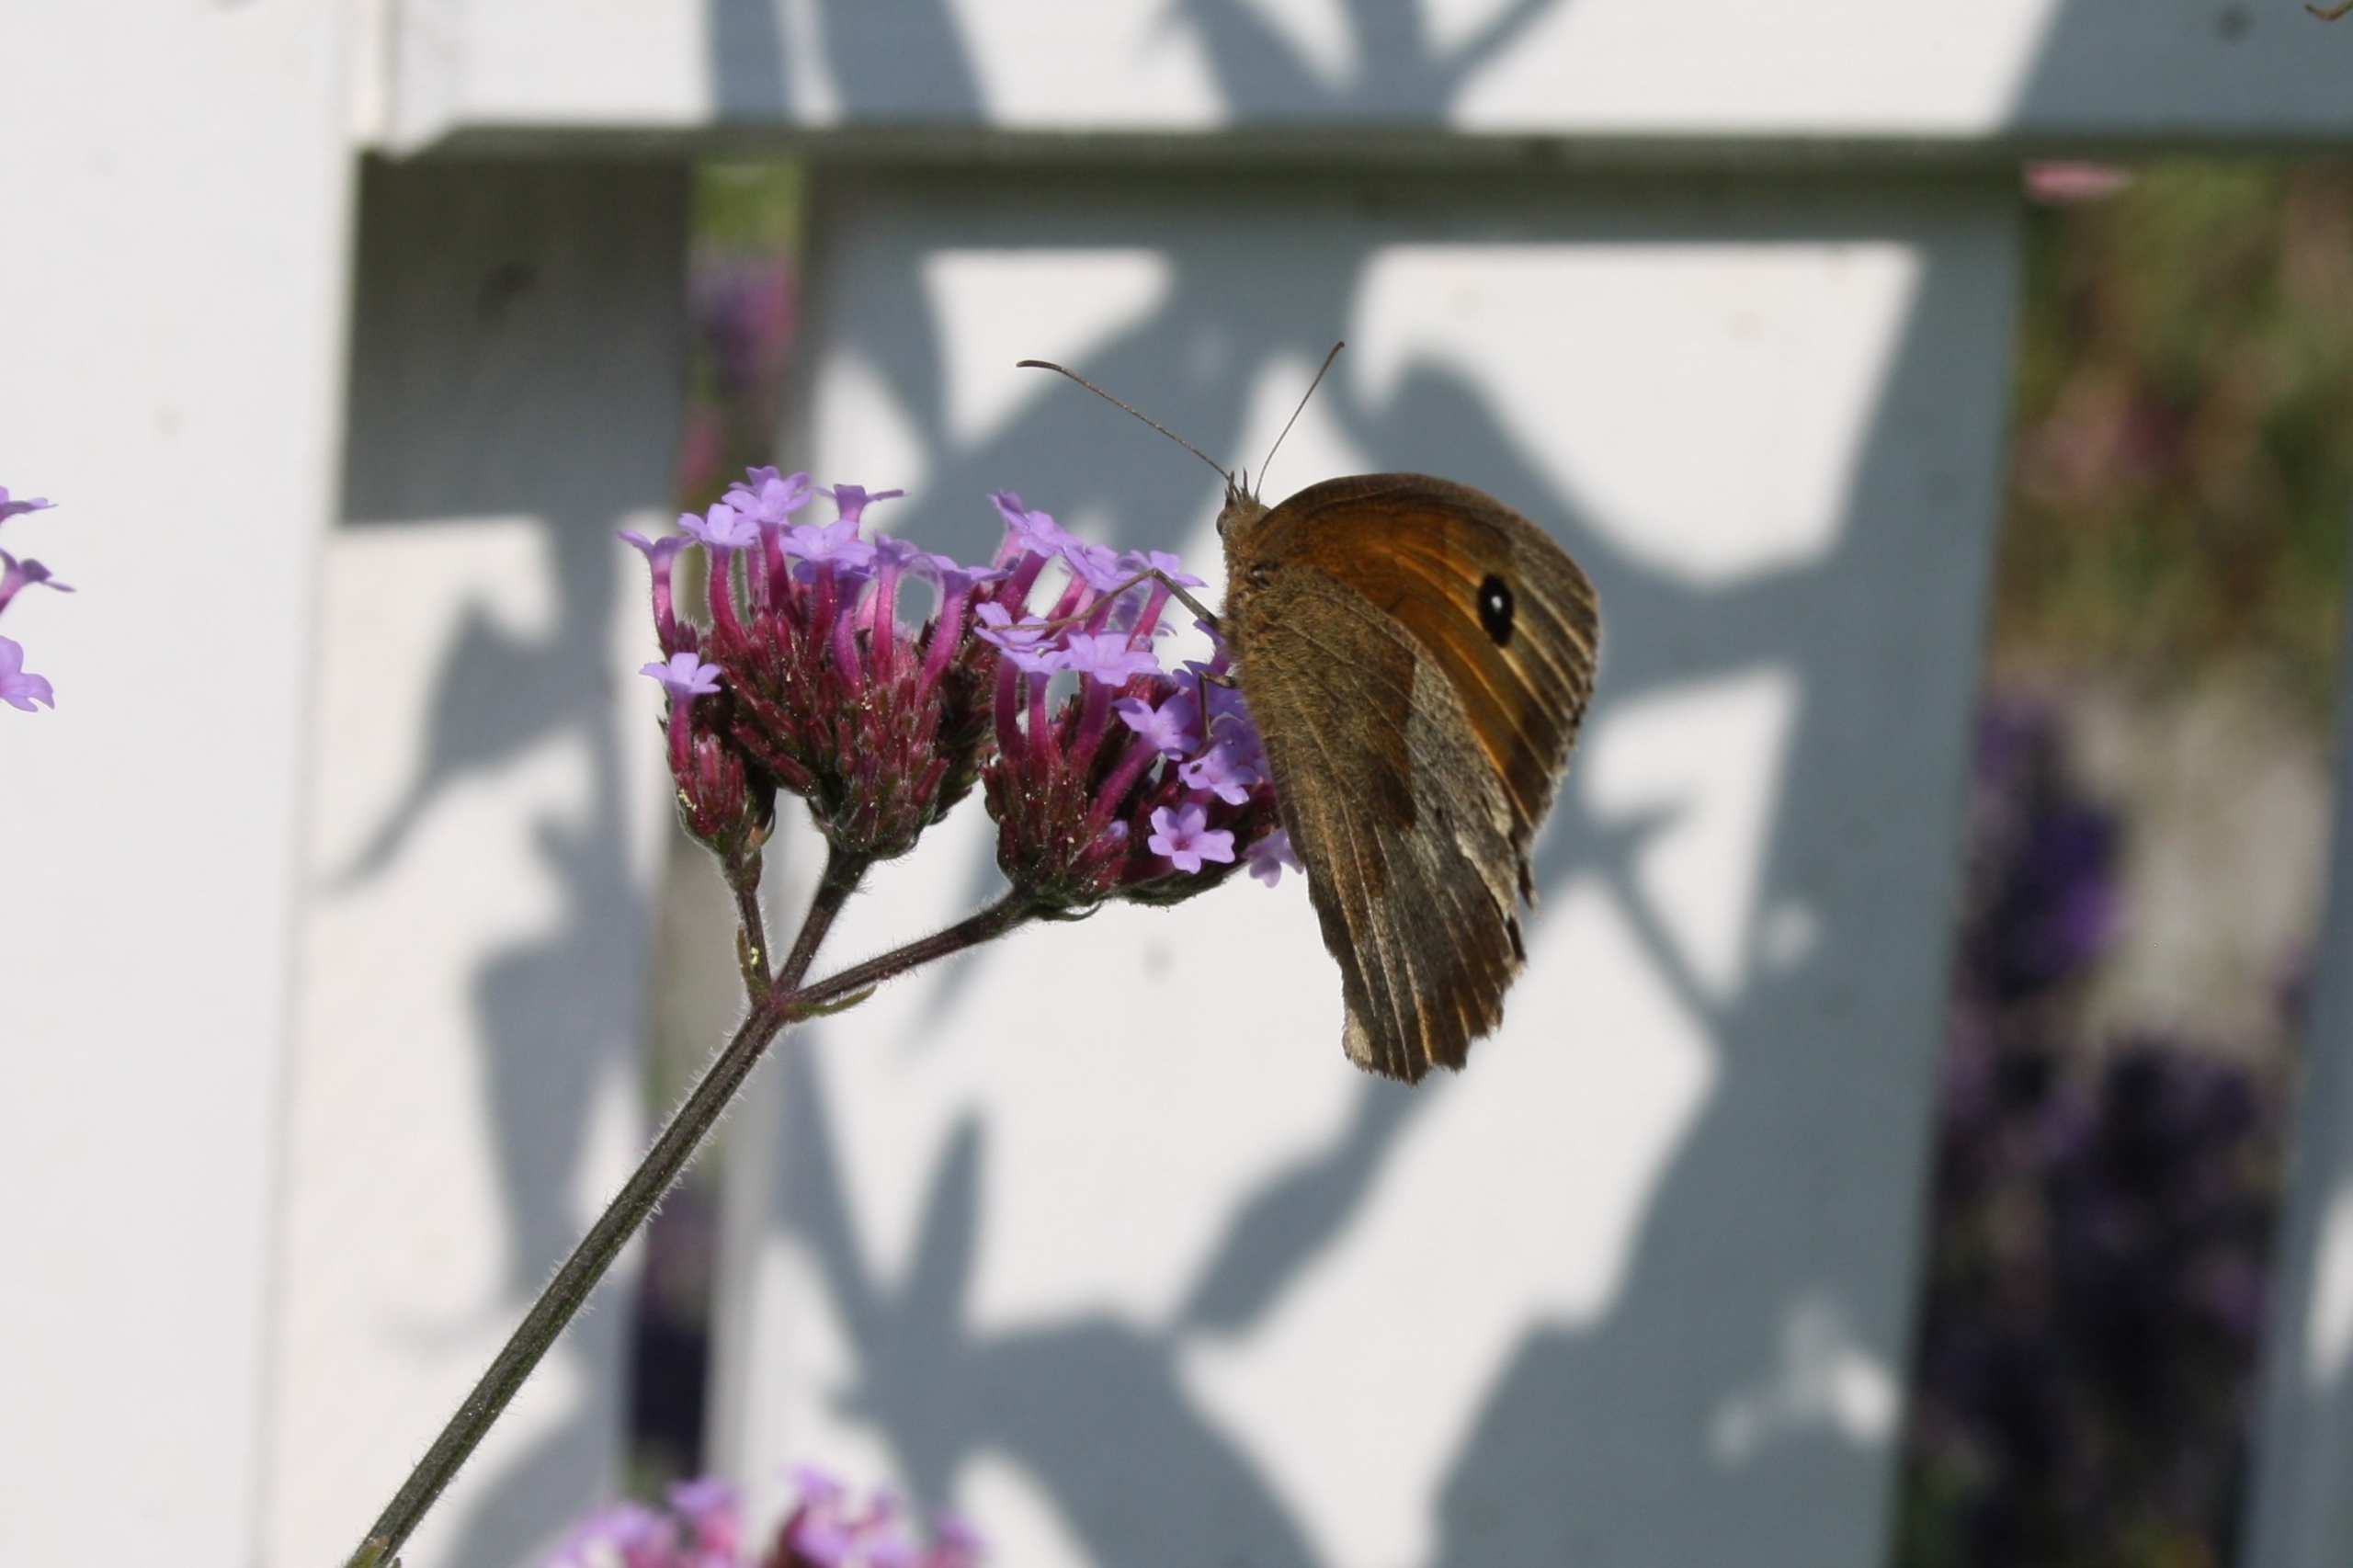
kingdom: Animalia
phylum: Arthropoda
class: Insecta
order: Lepidoptera
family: Nymphalidae
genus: Maniola
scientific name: Maniola jurtina
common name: Græsrandøje
